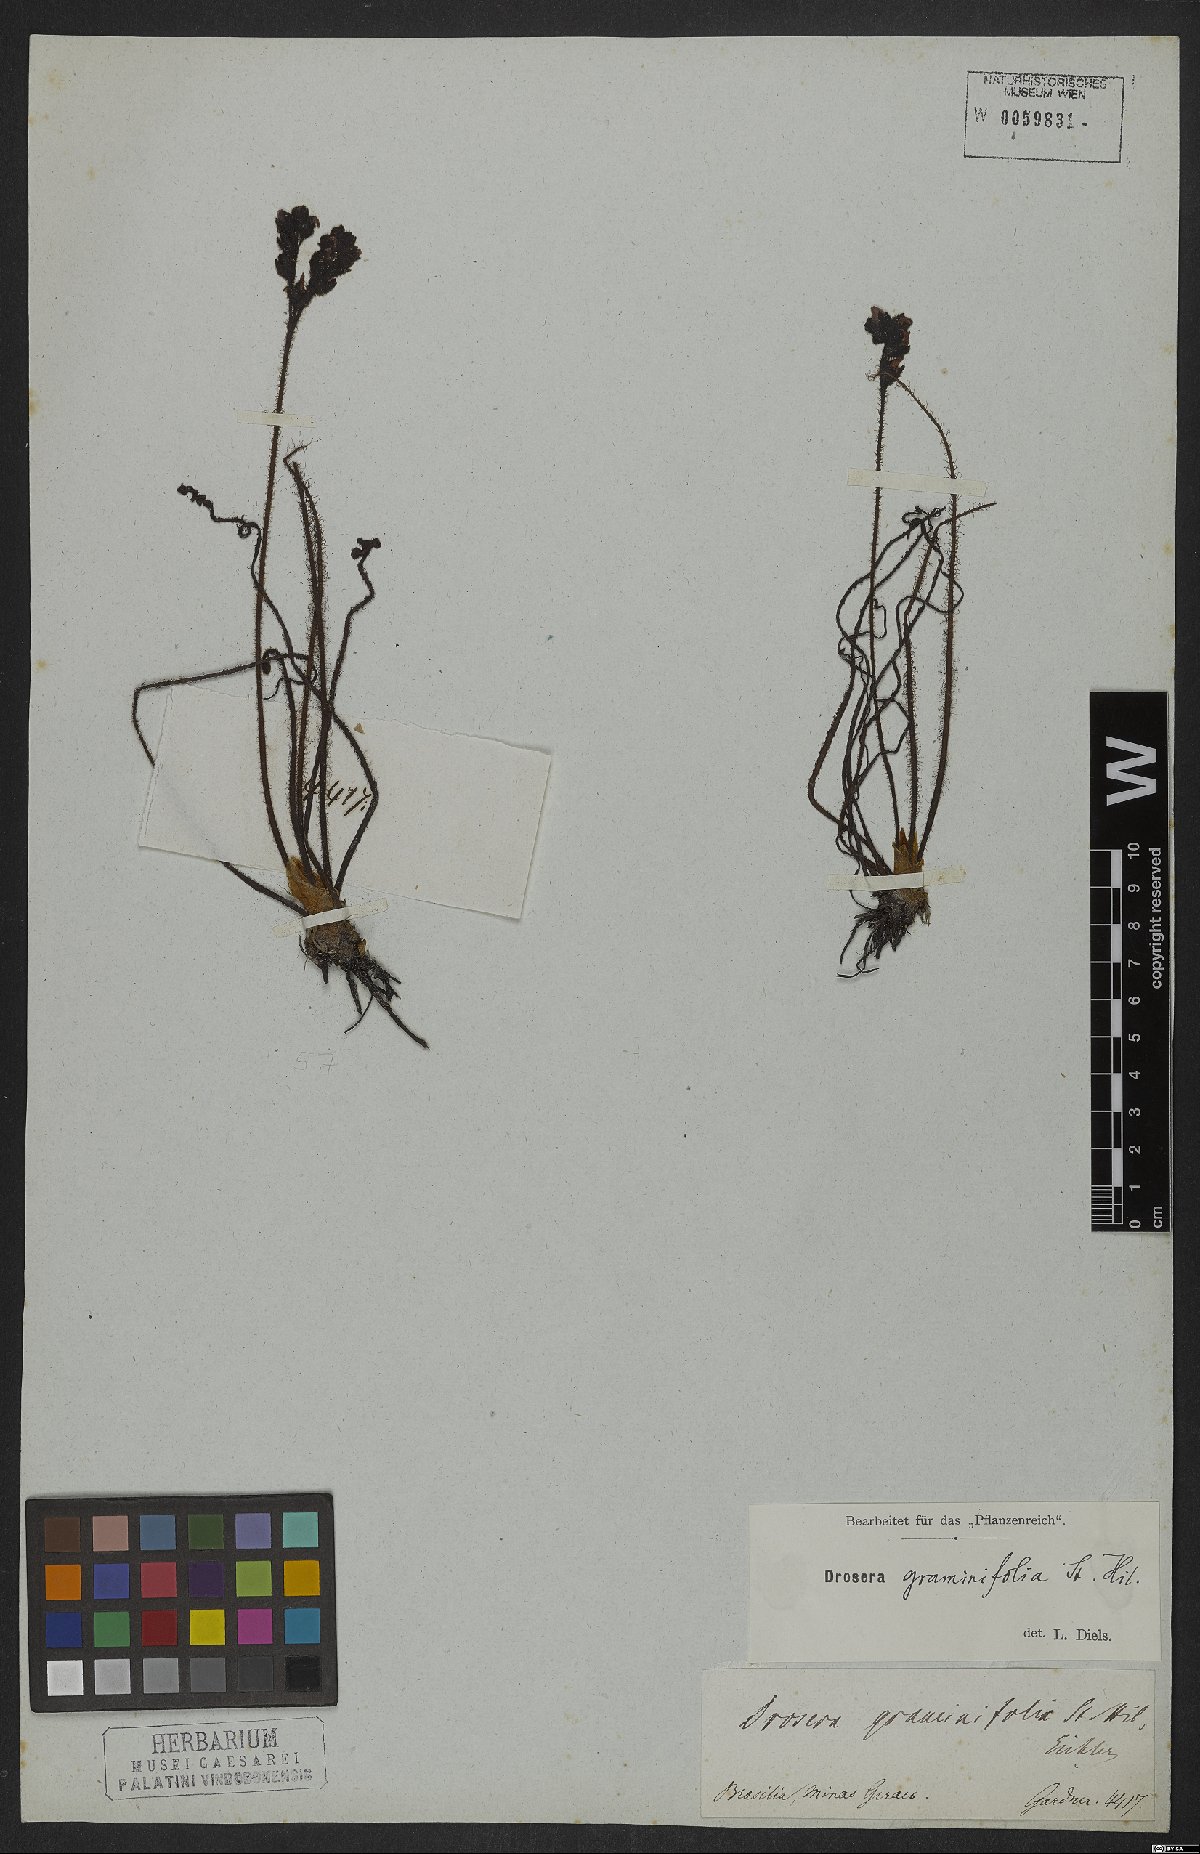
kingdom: Plantae
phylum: Tracheophyta
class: Magnoliopsida
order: Caryophyllales
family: Droseraceae
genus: Drosera
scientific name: Drosera graminifolia
